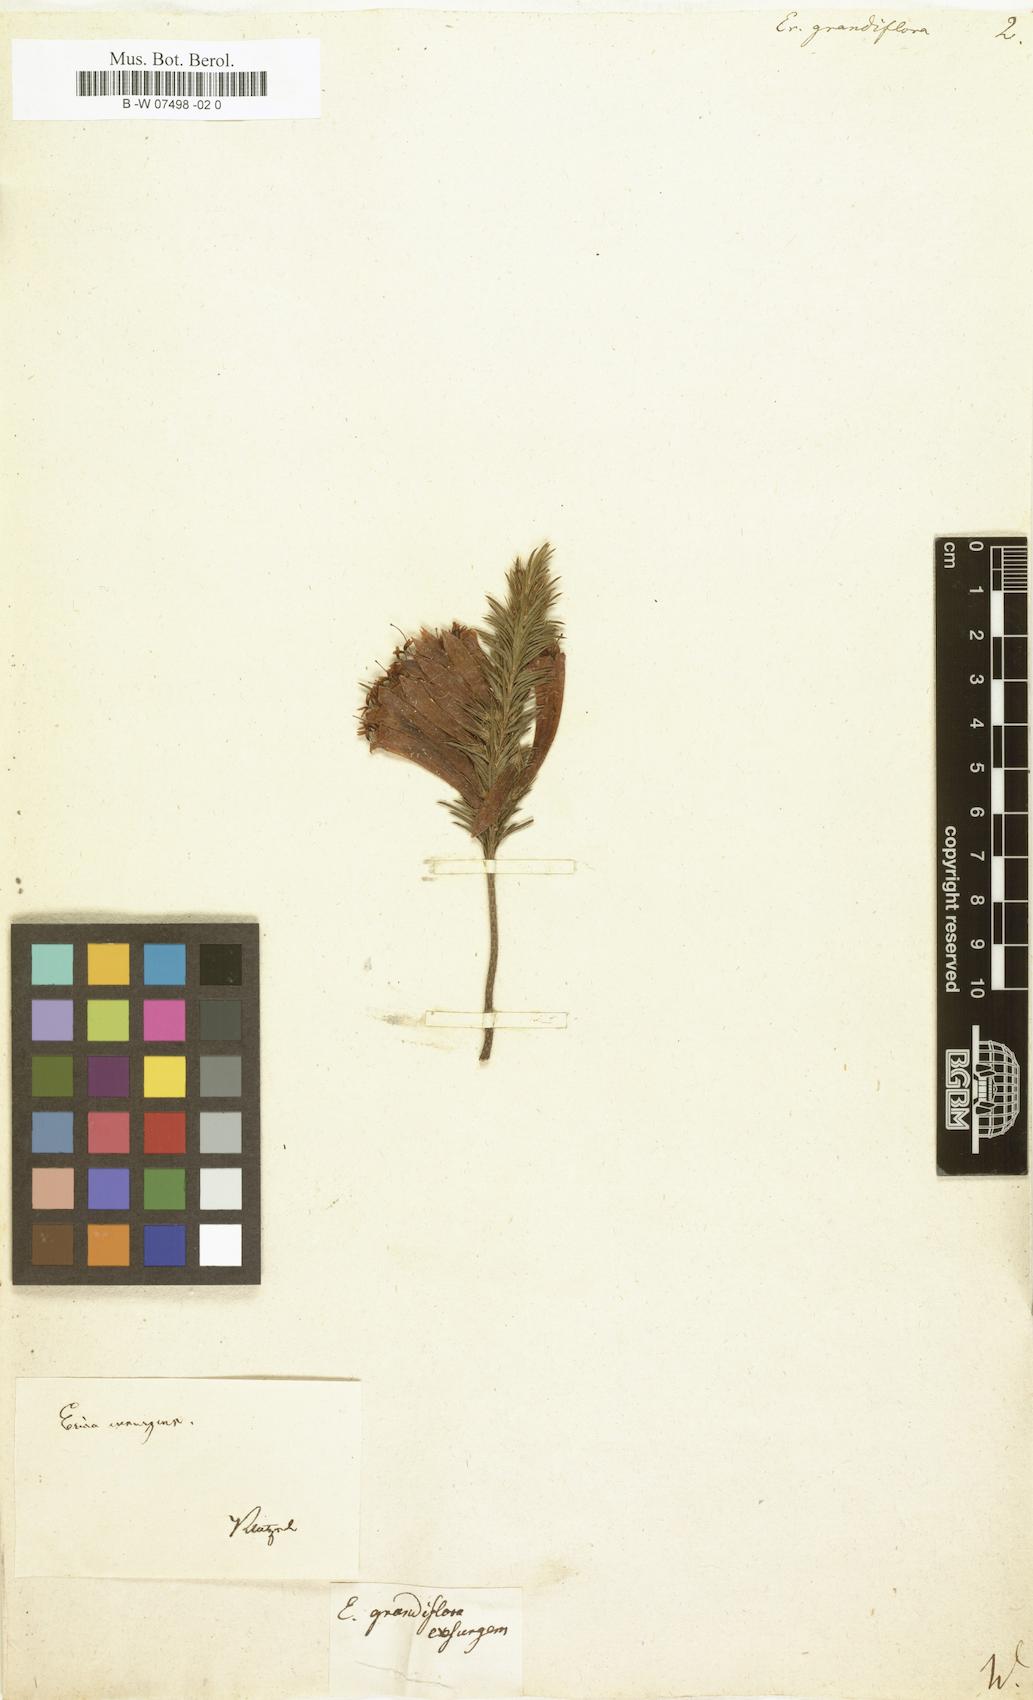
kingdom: Plantae
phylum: Tracheophyta
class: Magnoliopsida
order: Ericales
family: Ericaceae
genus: Erica
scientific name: Erica grandiflora
